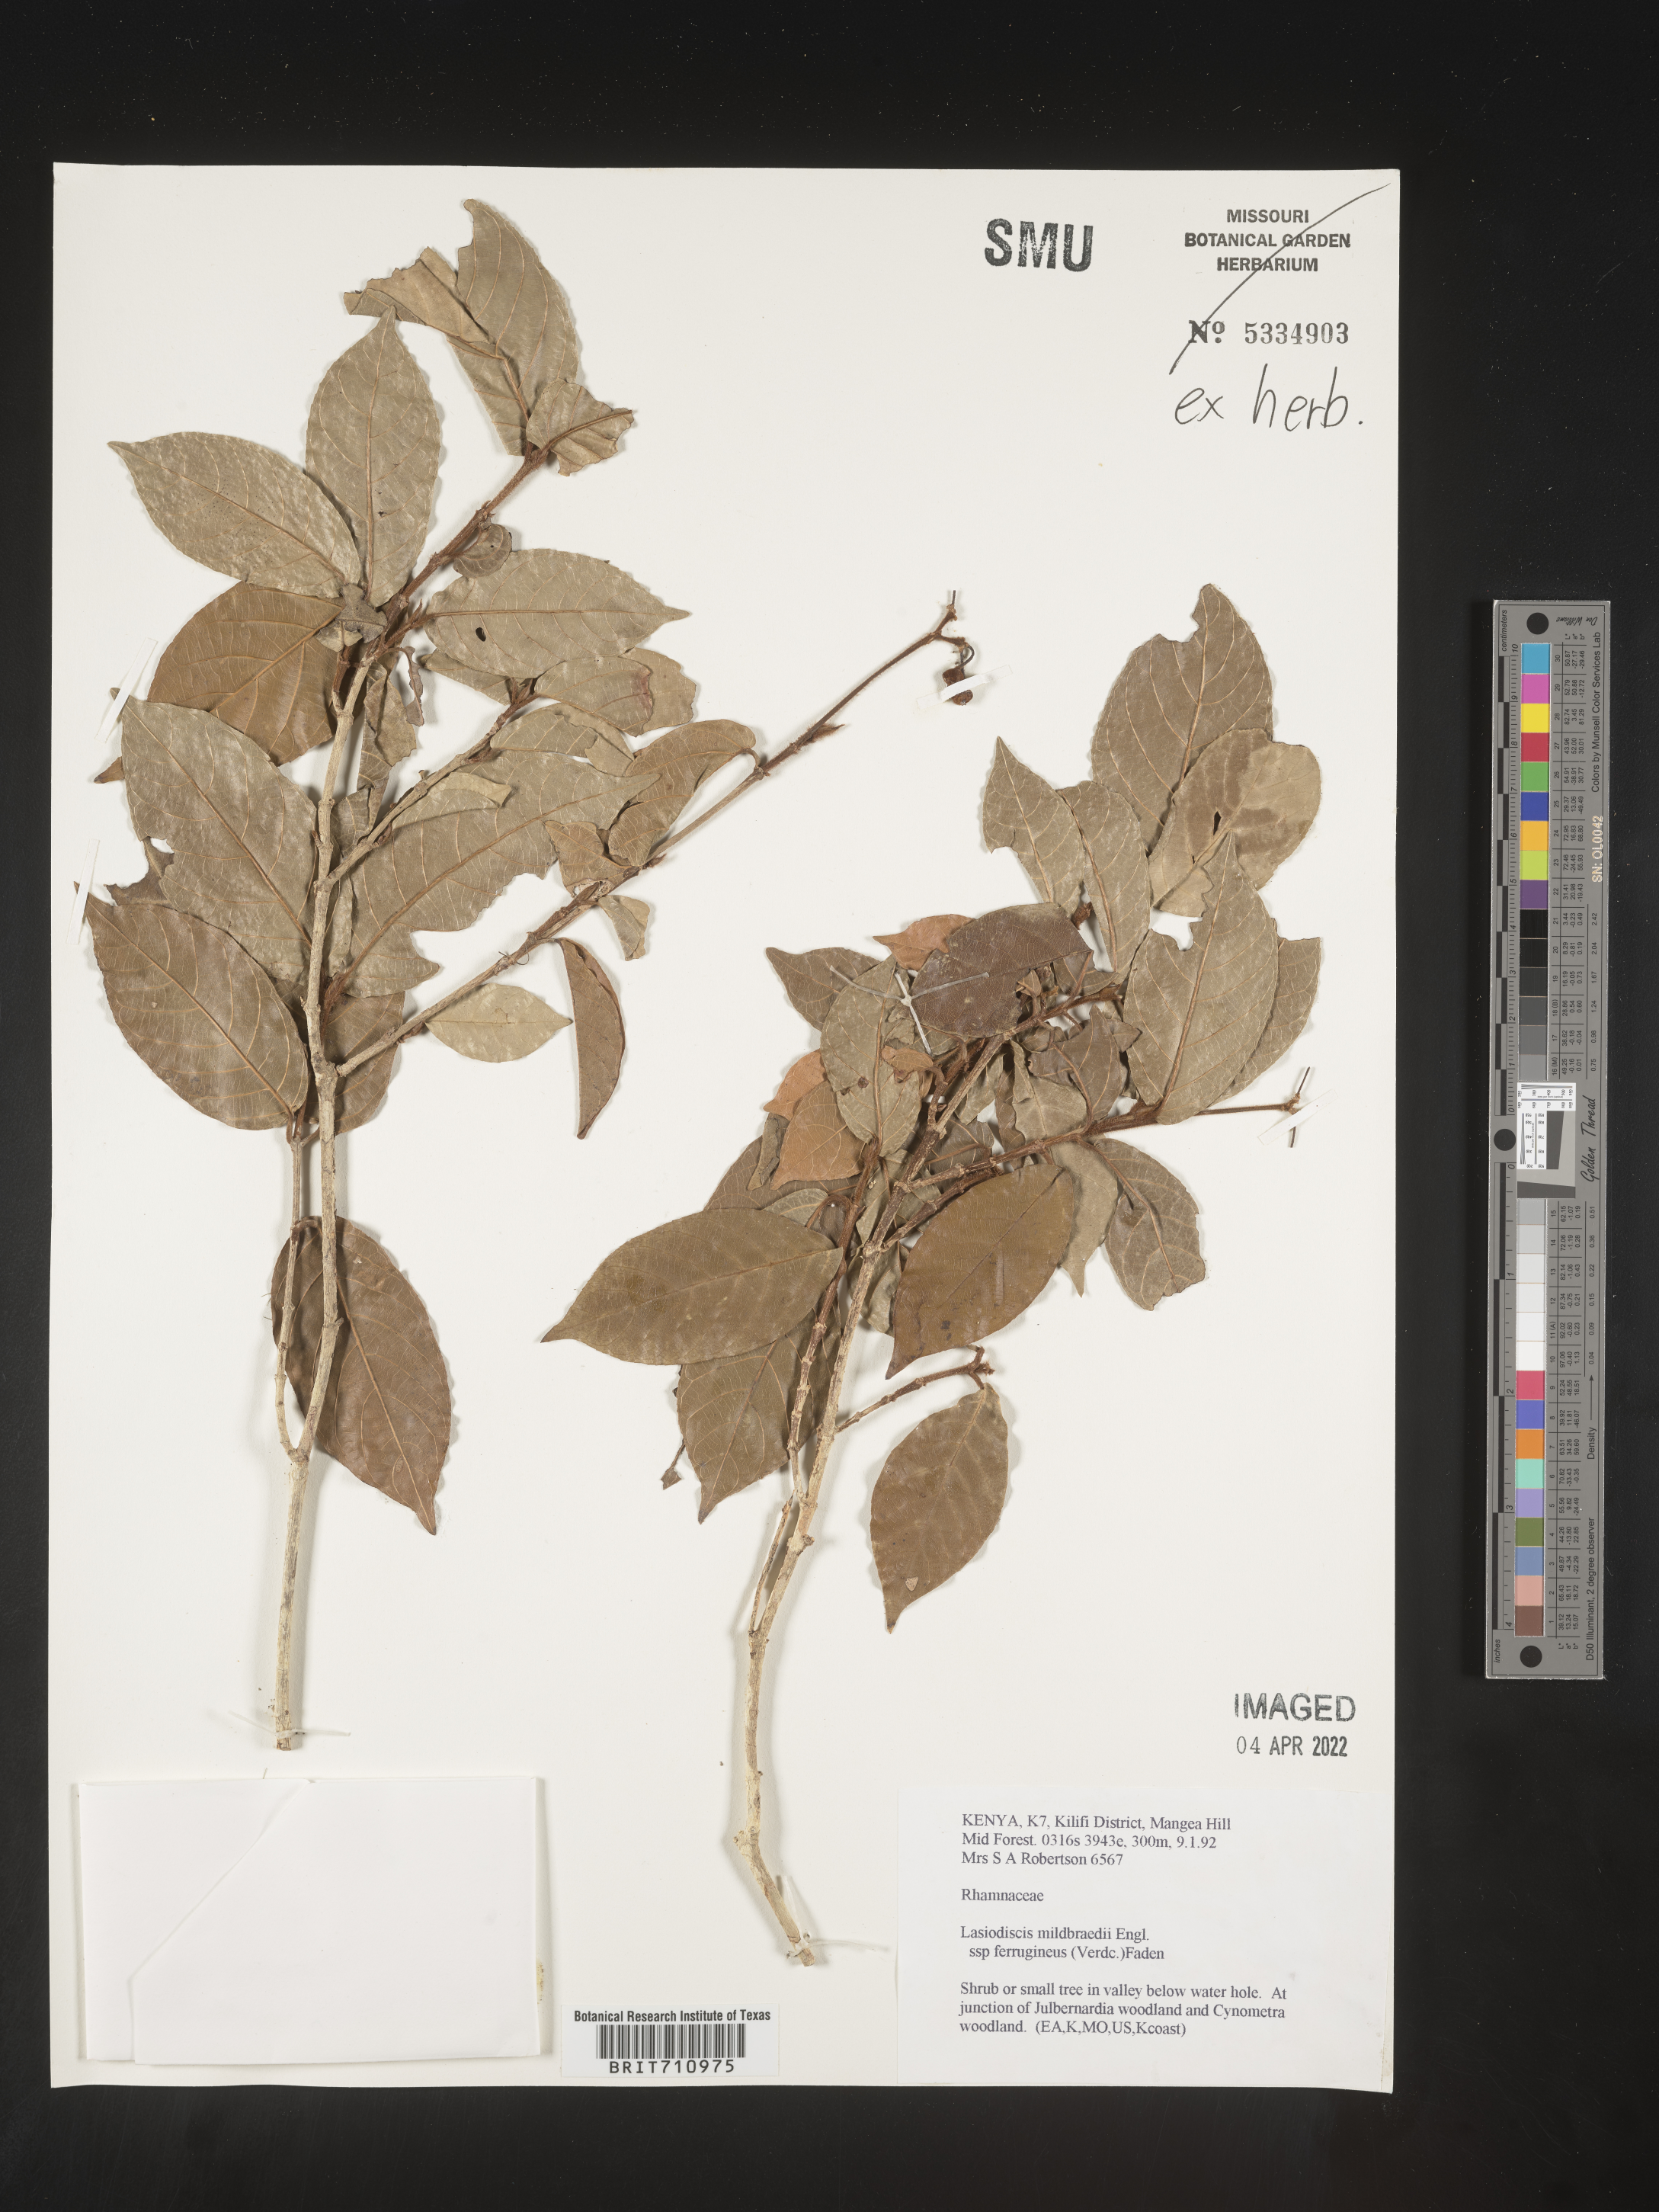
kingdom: Plantae
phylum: Tracheophyta
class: Magnoliopsida
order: Rosales
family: Rhamnaceae
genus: Lasiodiscus
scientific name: Lasiodiscus
